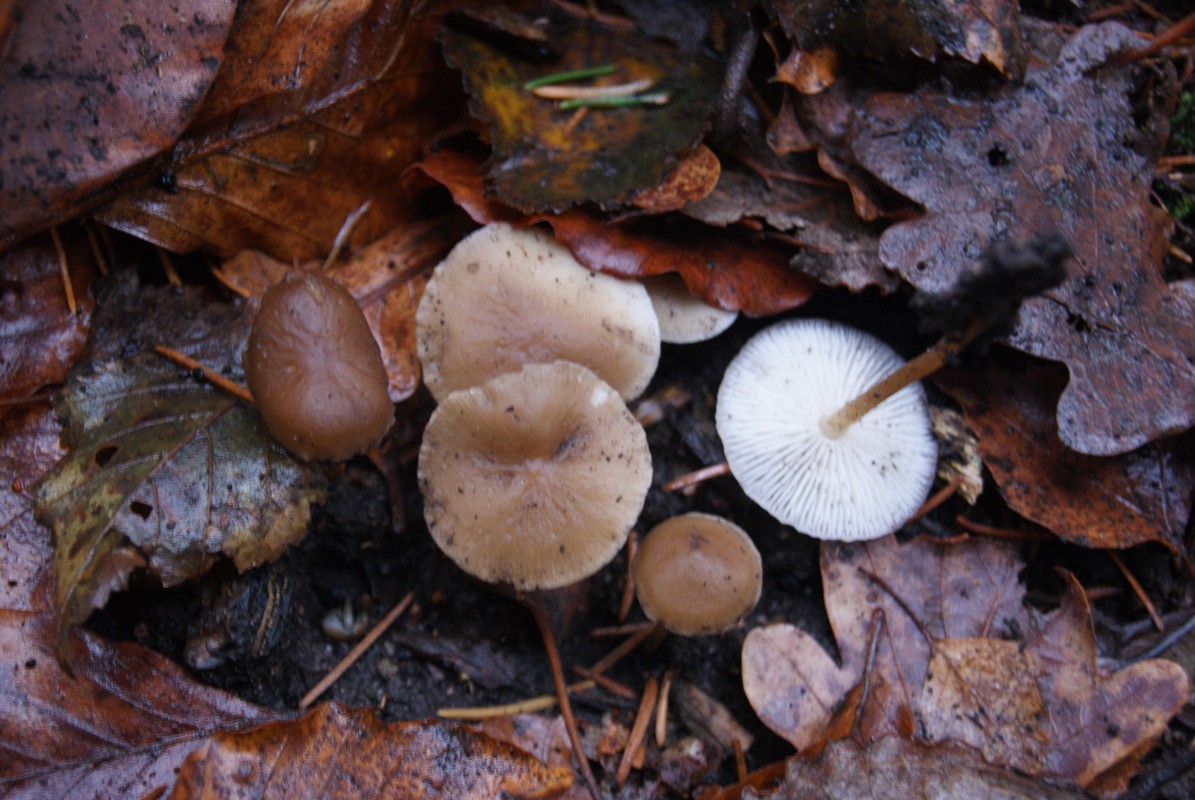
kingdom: Fungi
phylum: Basidiomycota
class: Agaricomycetes
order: Agaricales
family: Physalacriaceae
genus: Strobilurus
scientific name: Strobilurus esculentus
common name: gran-koglehat
